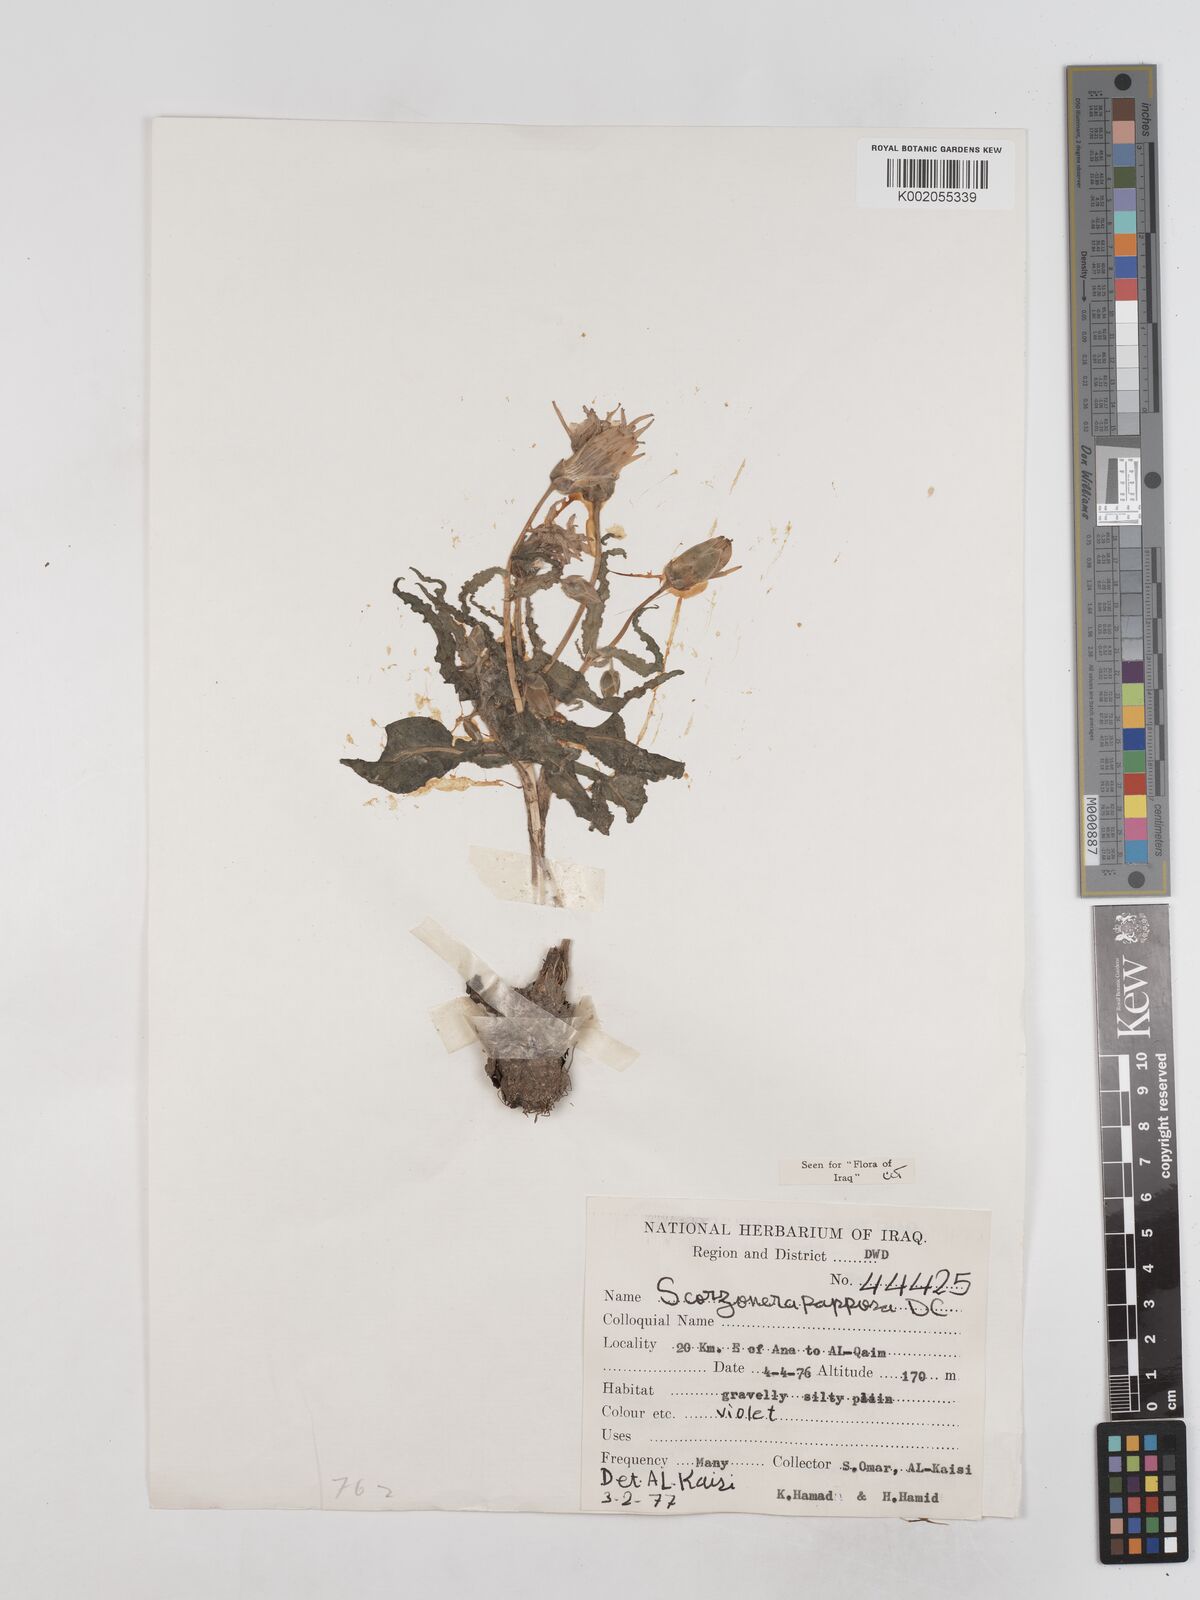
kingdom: Plantae
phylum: Tracheophyta
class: Magnoliopsida
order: Asterales
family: Asteraceae
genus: Pseudopodospermum
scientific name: Pseudopodospermum papposum
